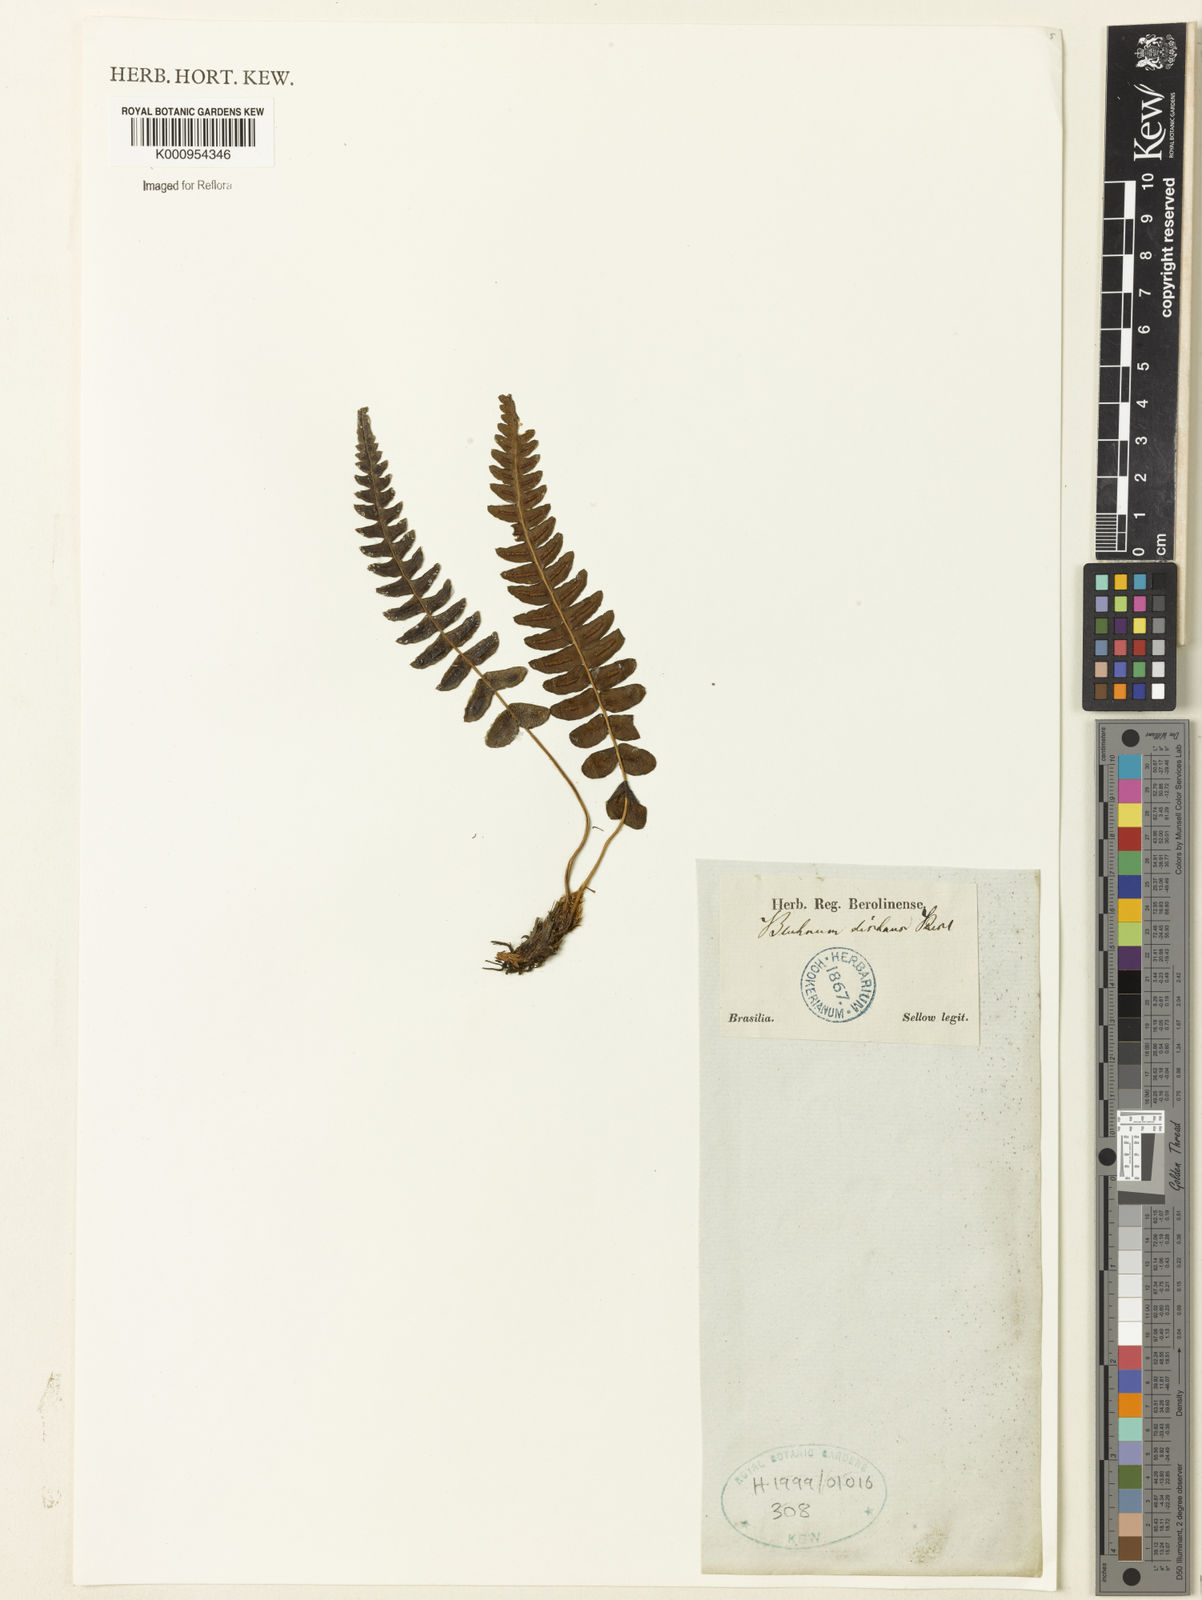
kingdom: Plantae
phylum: Tracheophyta
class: Polypodiopsida
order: Polypodiales
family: Blechnaceae
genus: Blechnum
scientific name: Blechnum appendiculatum
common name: Palm fern
